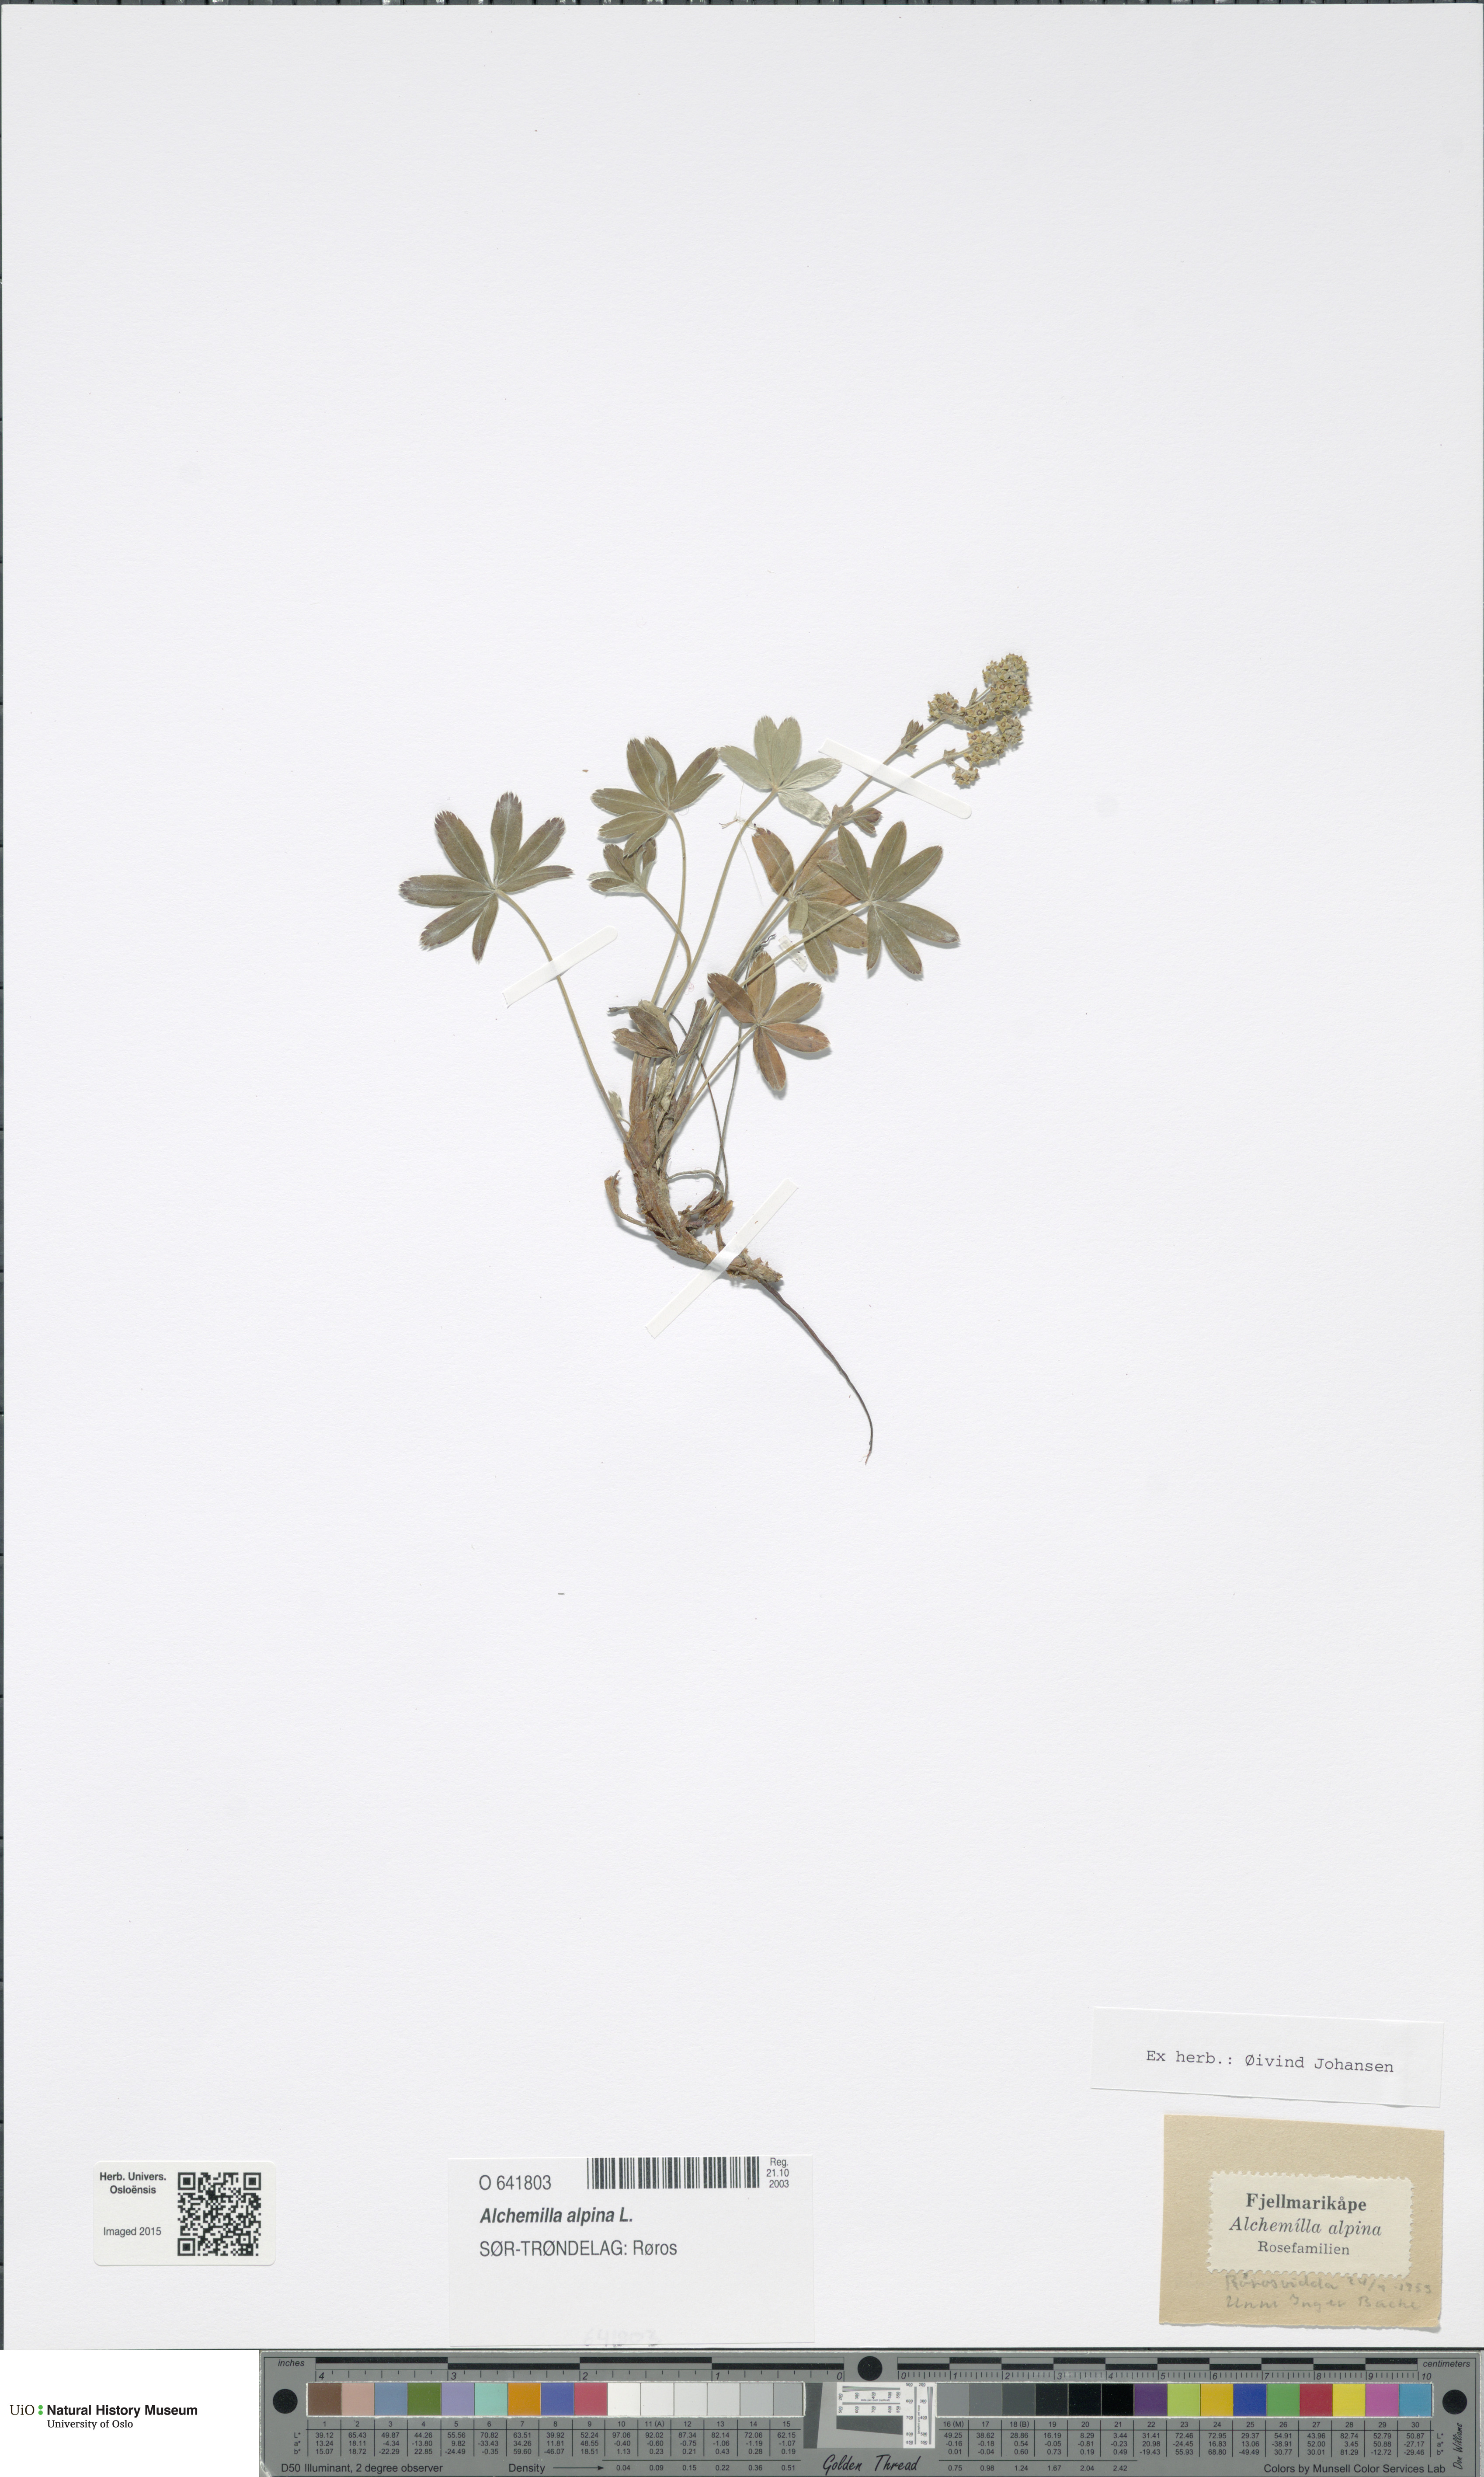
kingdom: Plantae
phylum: Tracheophyta
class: Magnoliopsida
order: Rosales
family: Rosaceae
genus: Alchemilla
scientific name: Alchemilla alpina
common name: Alpine lady's-mantle
